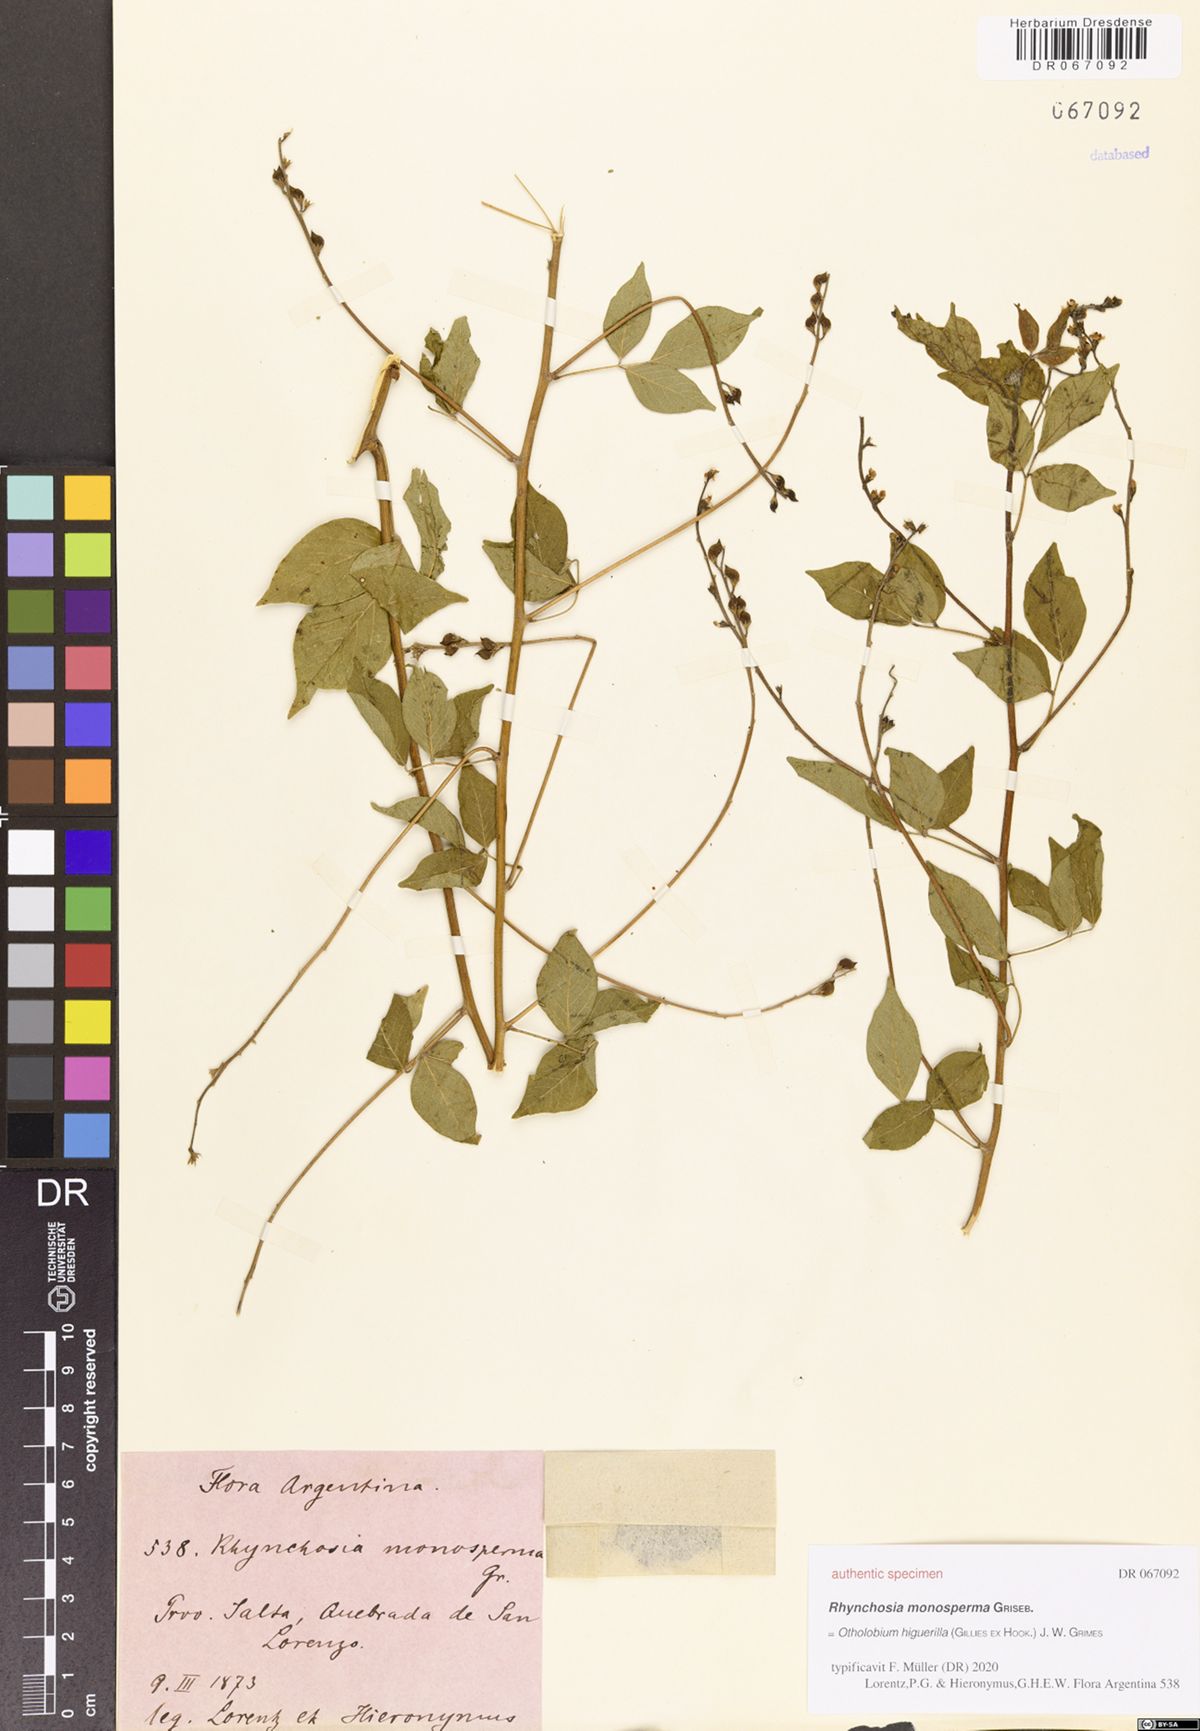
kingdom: Plantae
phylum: Tracheophyta
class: Magnoliopsida
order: Fabales
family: Fabaceae
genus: Psoralea
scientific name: Psoralea Otholobium higuerilla
